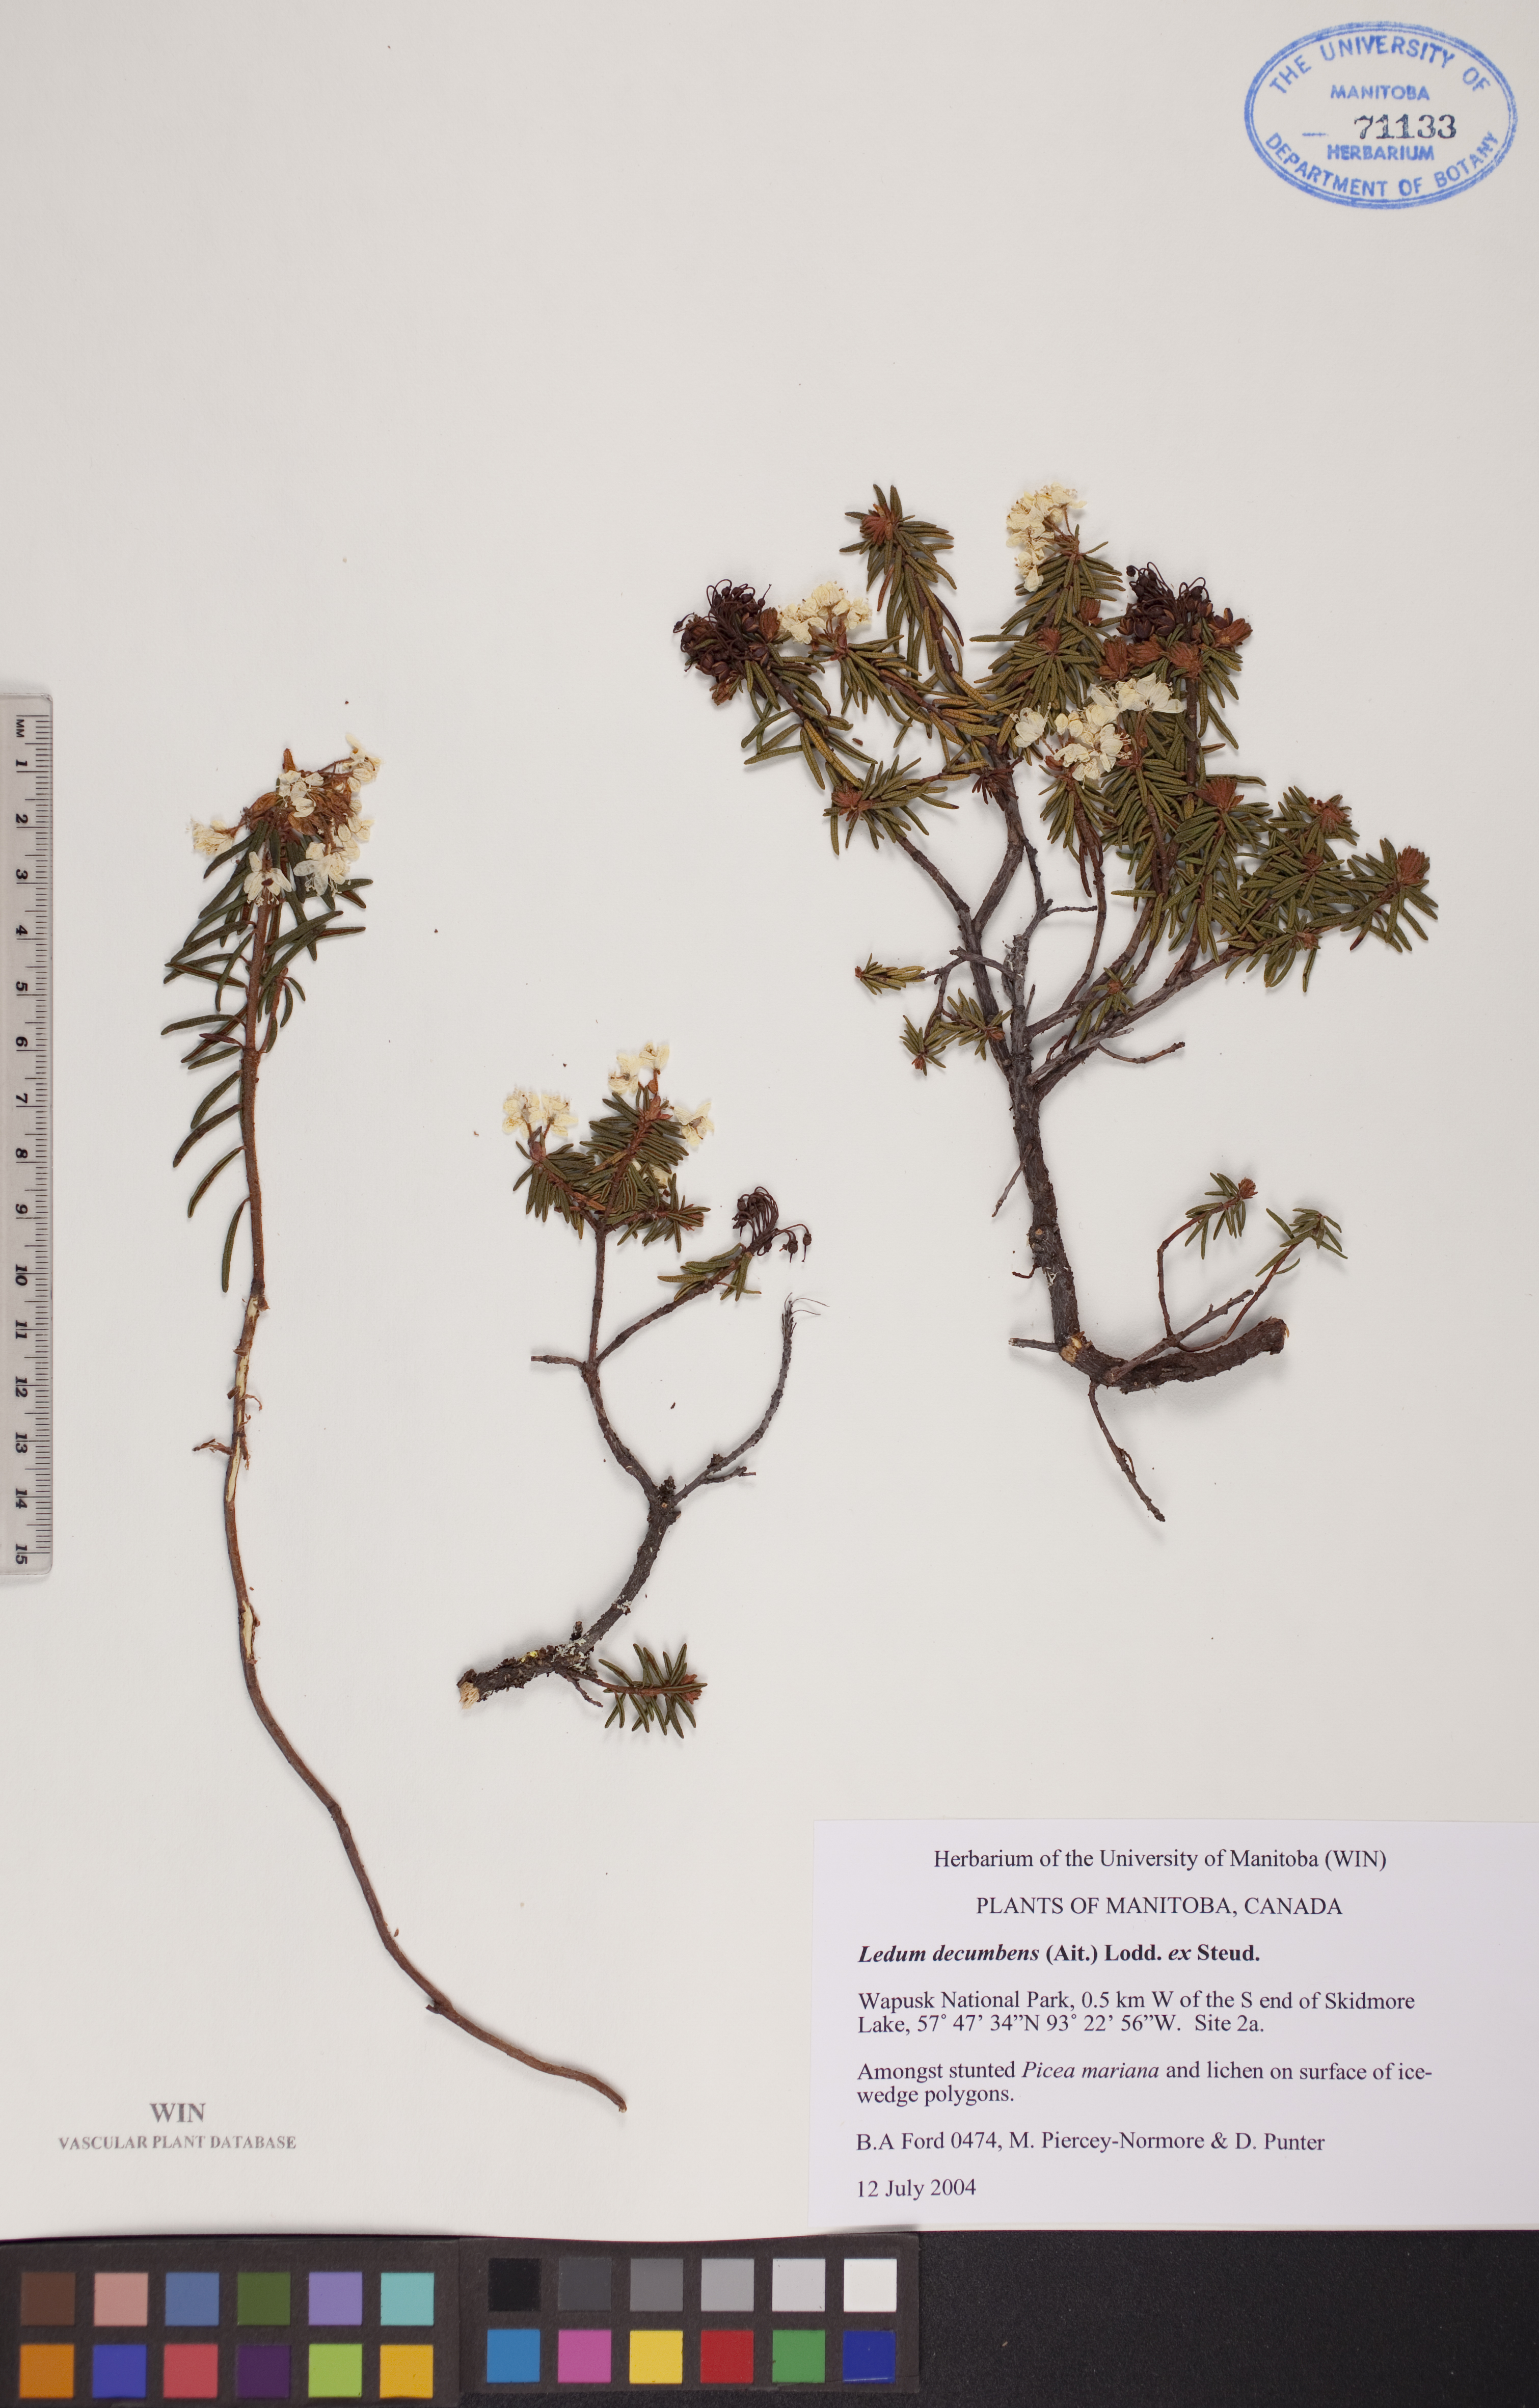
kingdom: Plantae
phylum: Tracheophyta
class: Magnoliopsida
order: Ericales
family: Ericaceae
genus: Rhododendron
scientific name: Rhododendron tomentosum
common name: Marsh labrador tea
